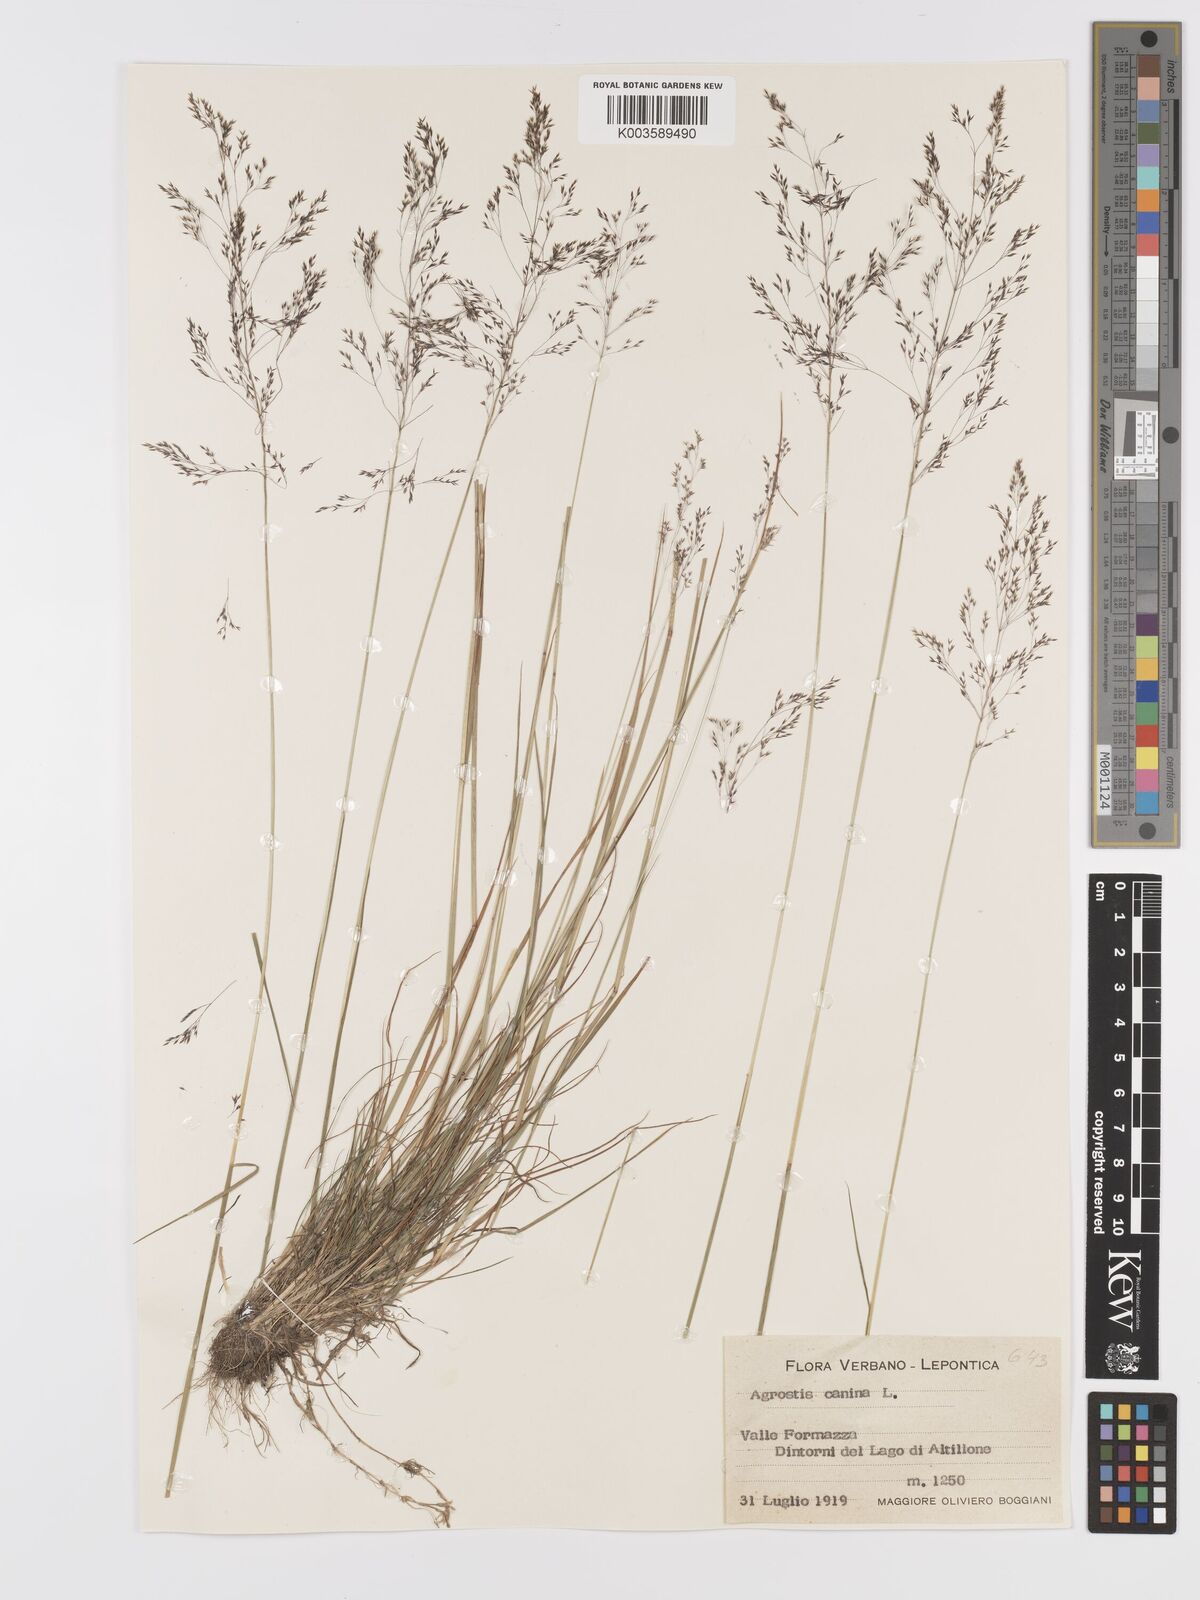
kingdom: Plantae
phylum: Tracheophyta
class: Liliopsida
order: Poales
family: Poaceae
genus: Agrostis
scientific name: Agrostis canina
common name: Velvet bent
